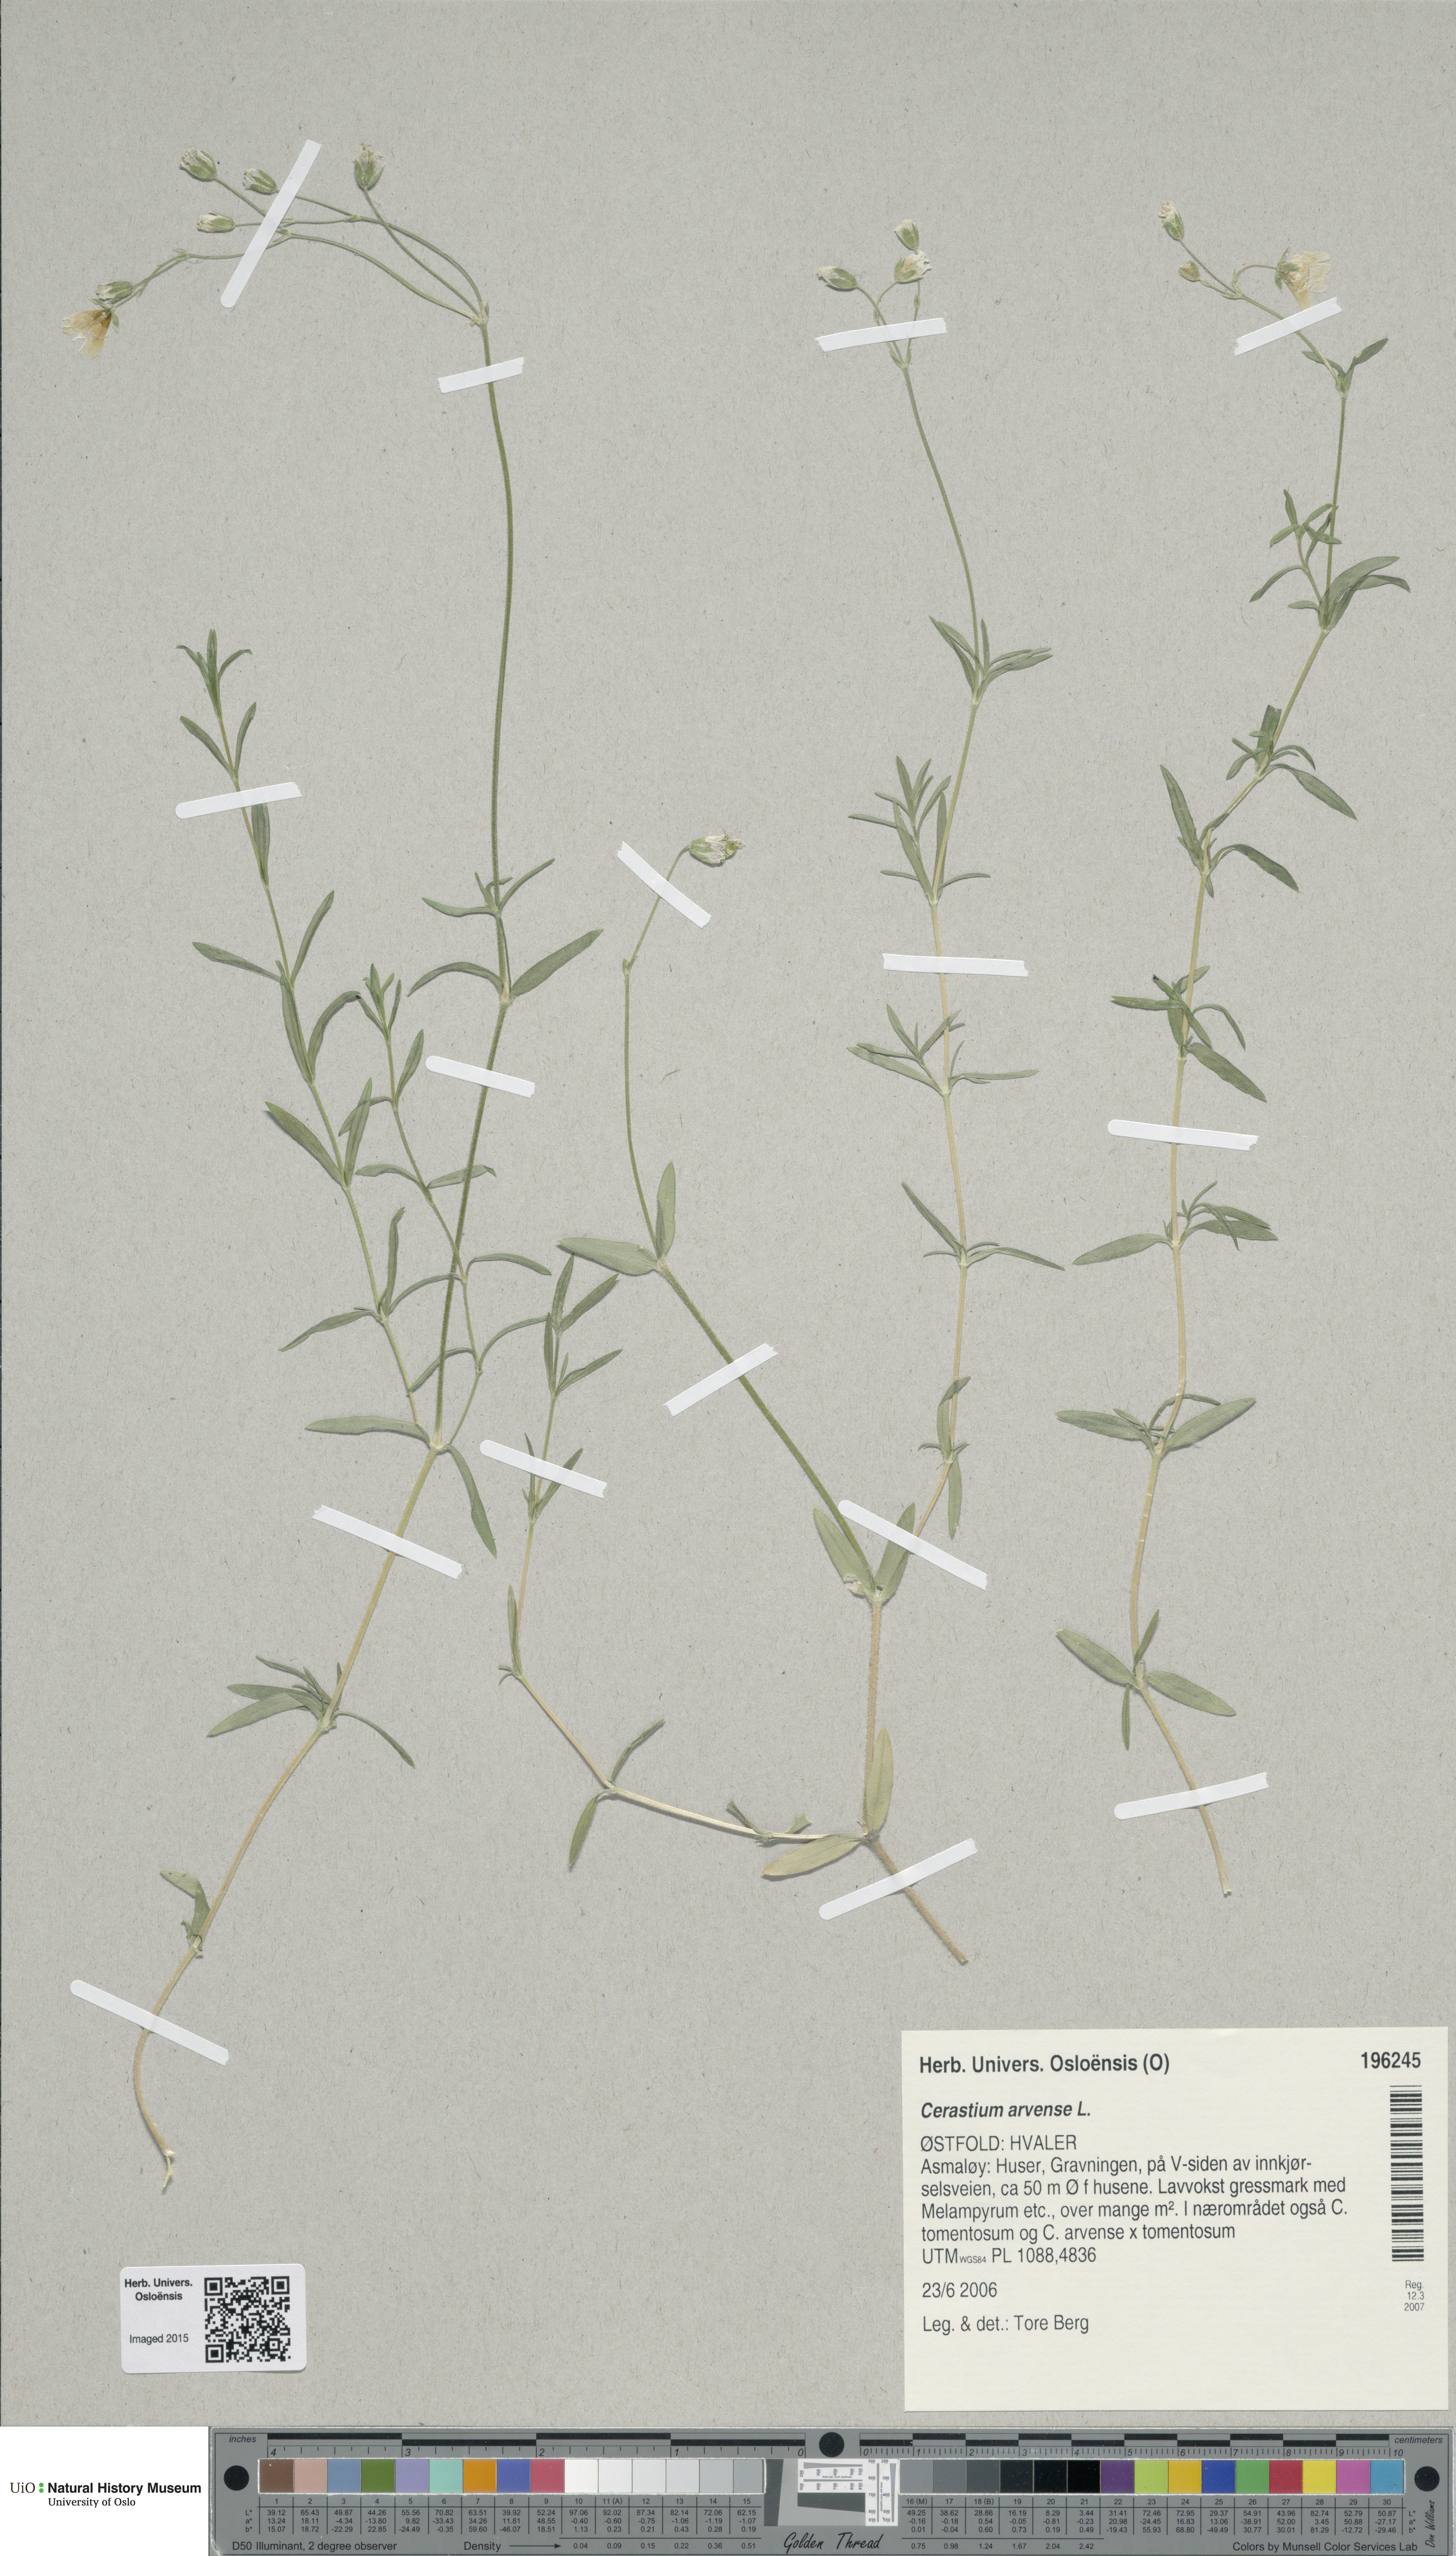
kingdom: Plantae
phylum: Tracheophyta
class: Magnoliopsida
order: Caryophyllales
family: Caryophyllaceae
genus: Cerastium
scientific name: Cerastium arvense
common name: Field mouse-ear
